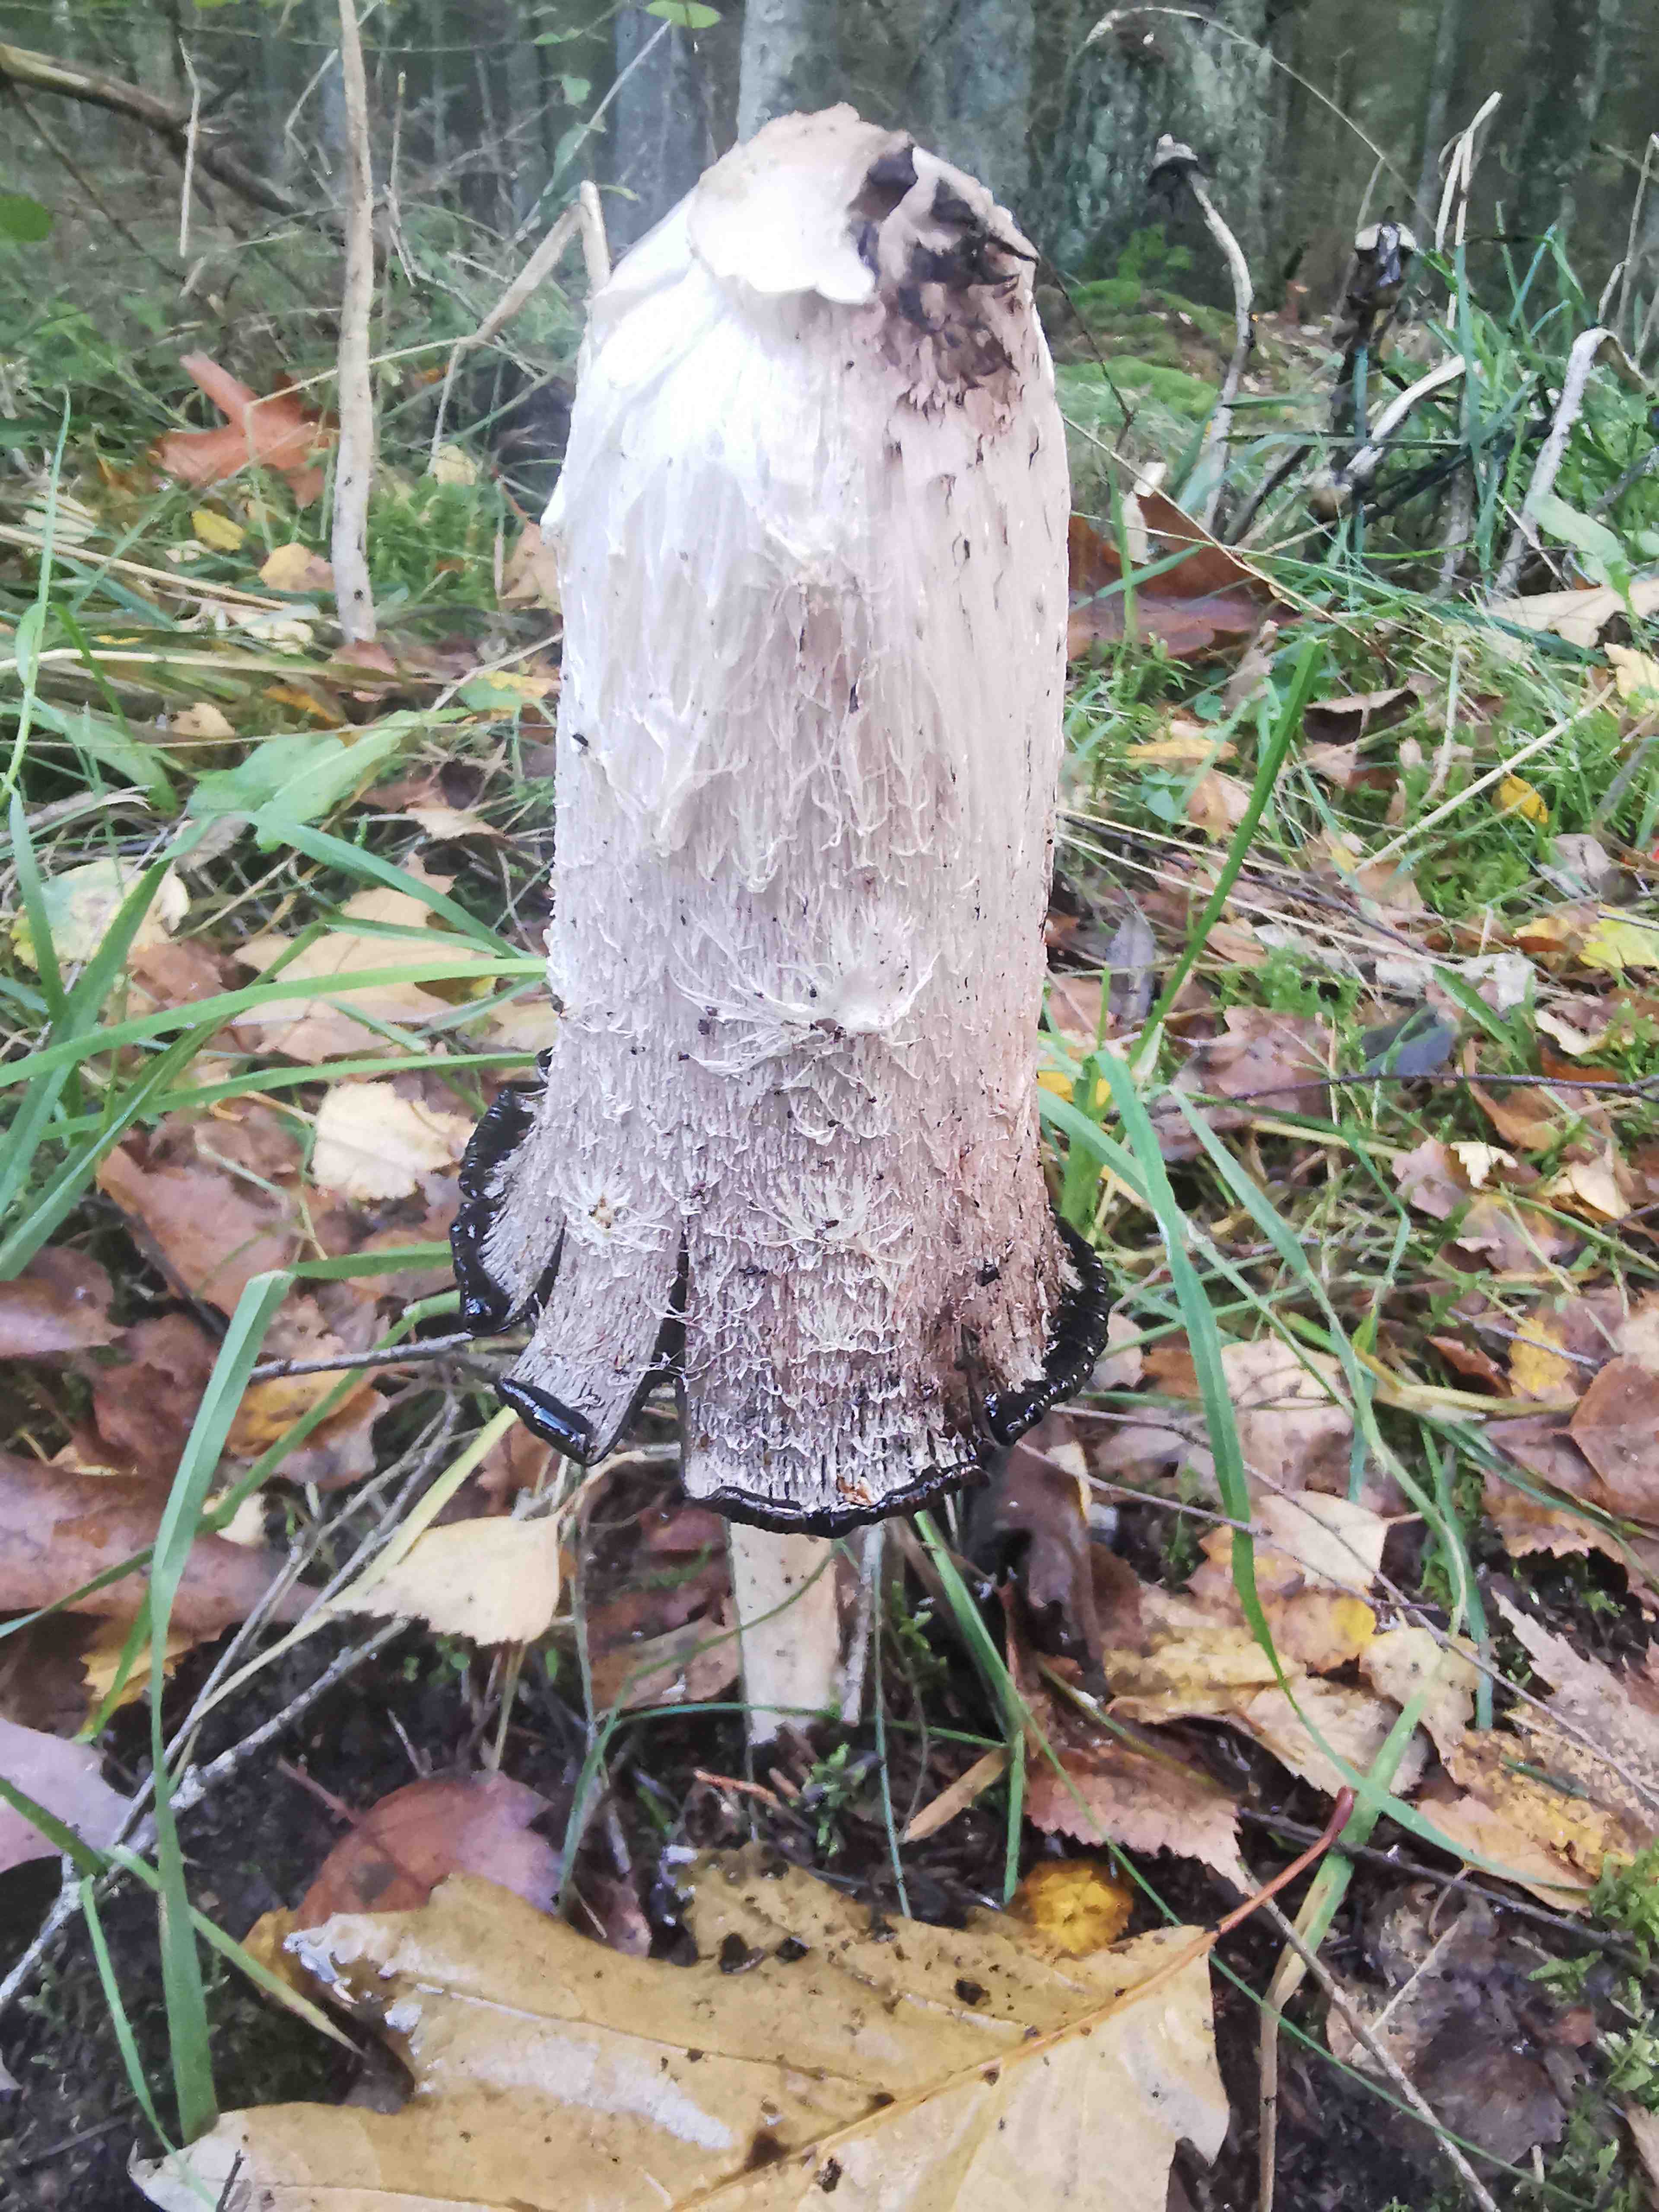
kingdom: Fungi
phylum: Basidiomycota
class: Agaricomycetes
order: Agaricales
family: Agaricaceae
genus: Coprinus
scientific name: Coprinus comatus
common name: stor parykhat
